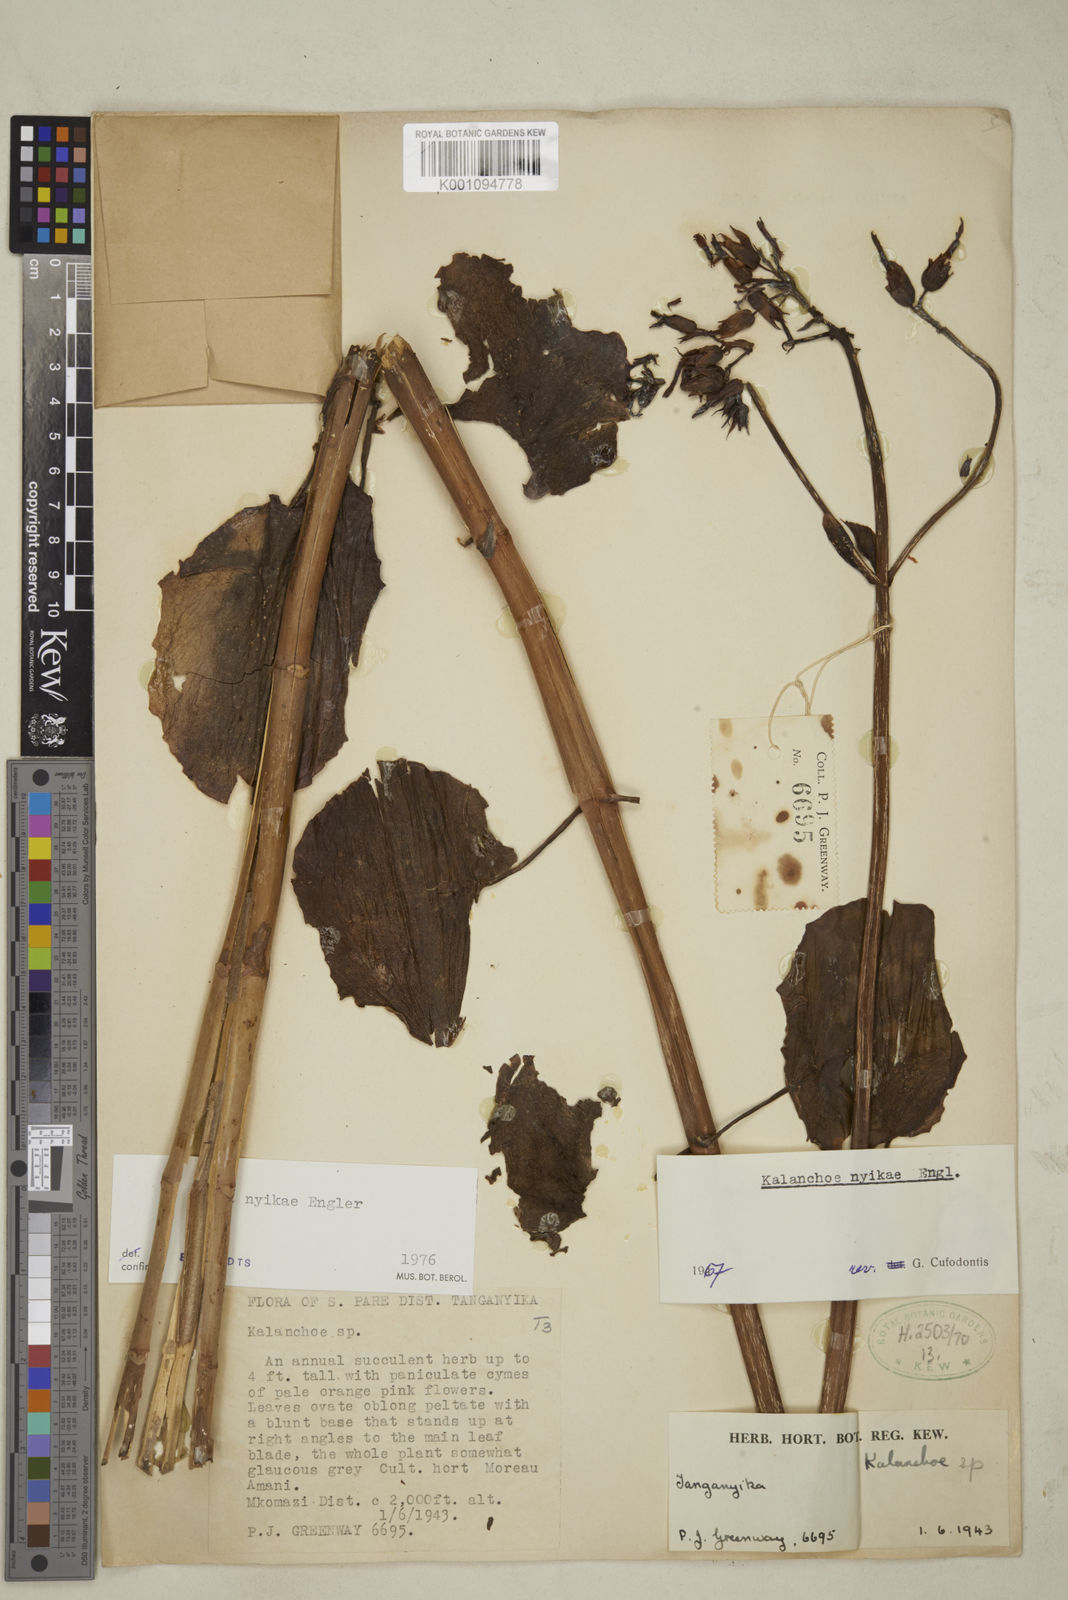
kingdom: Plantae
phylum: Tracheophyta
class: Magnoliopsida
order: Saxifragales
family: Crassulaceae
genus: Kalanchoe
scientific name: Kalanchoe nyikae
